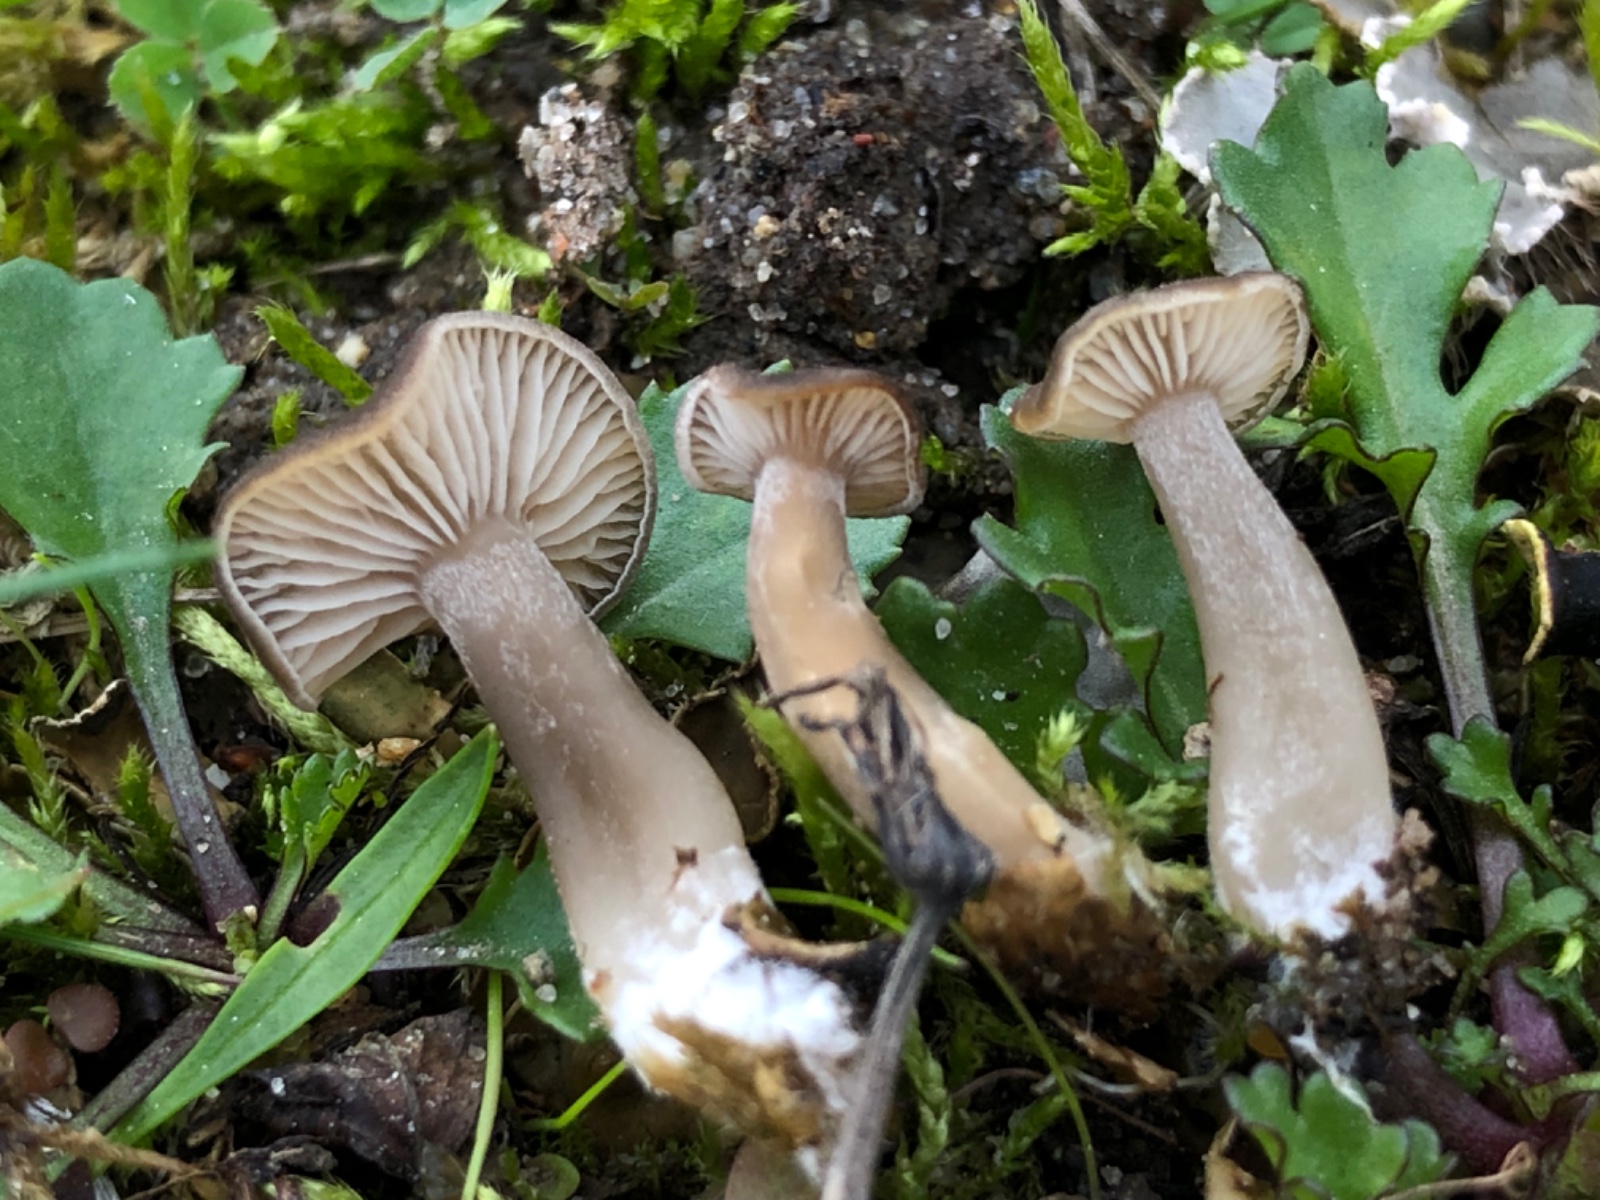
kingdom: Fungi
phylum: Basidiomycota
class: Agaricomycetes
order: Agaricales
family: Tricholomataceae
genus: Gamundia
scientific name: Gamundia xerophila
